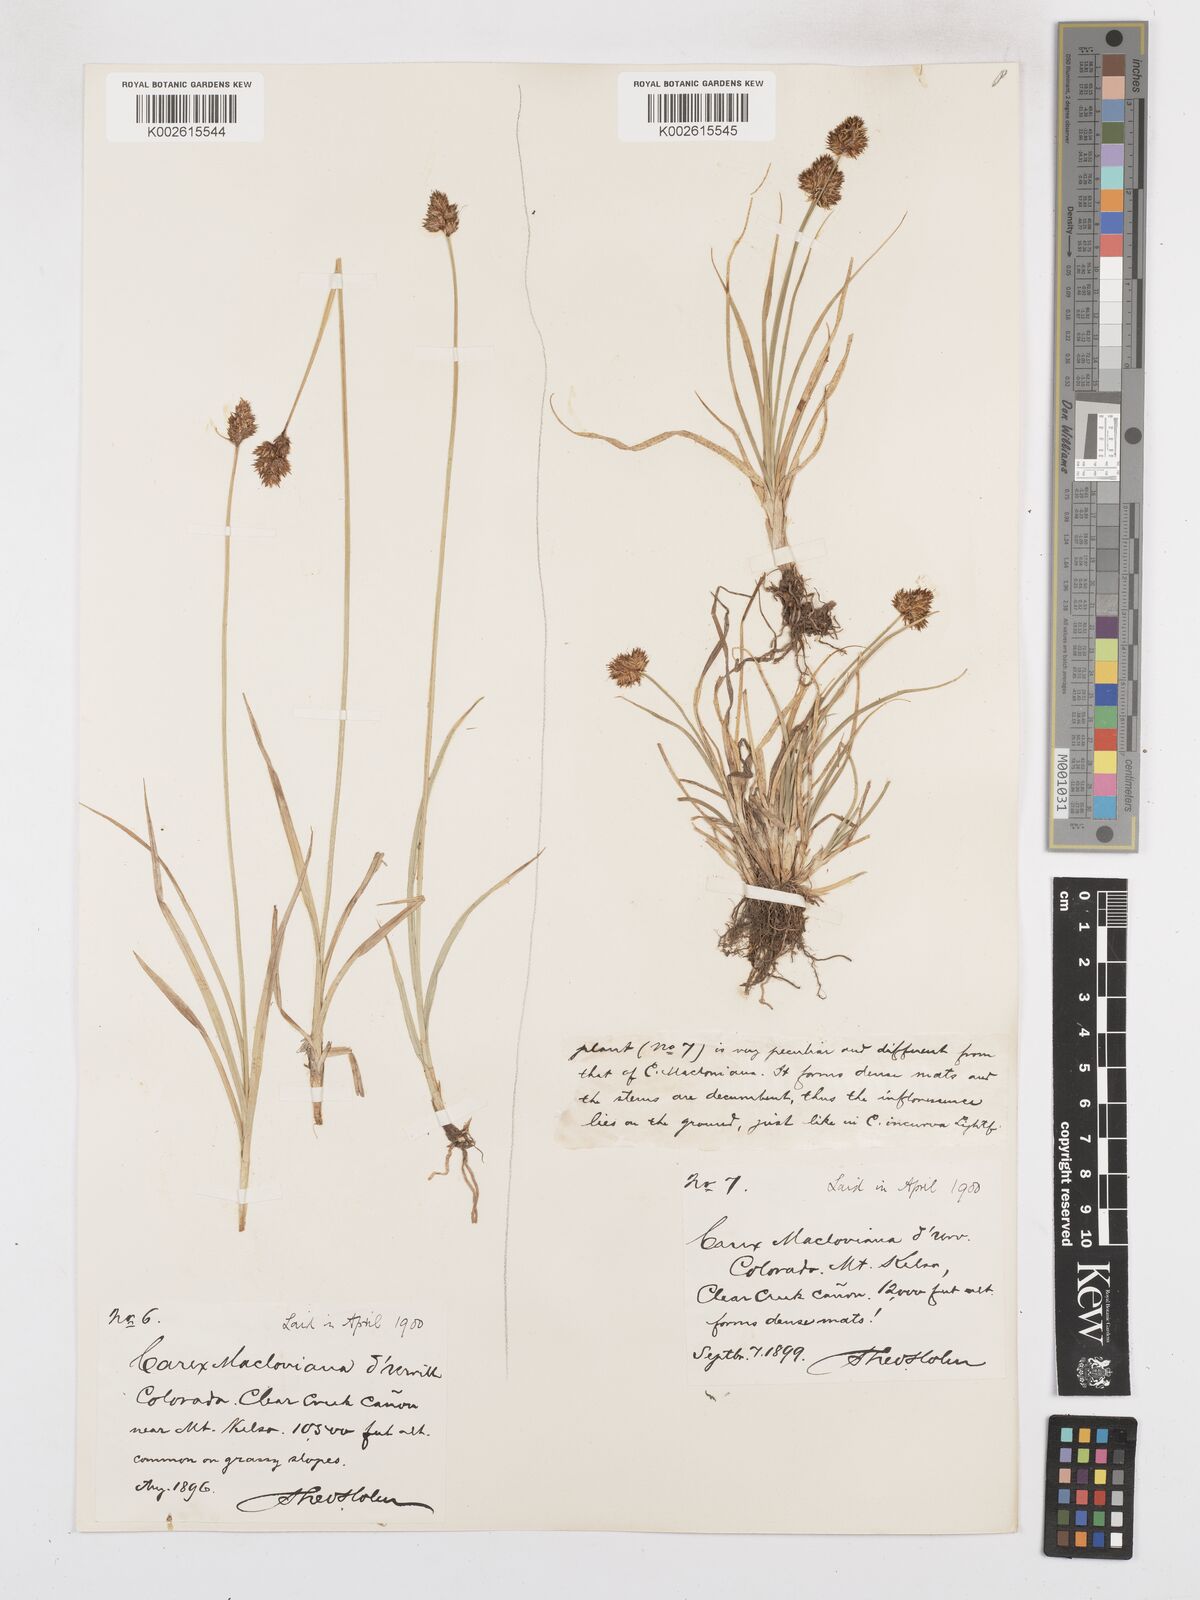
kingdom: Plantae
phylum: Tracheophyta
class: Liliopsida
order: Poales
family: Cyperaceae
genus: Carex
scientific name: Carex subfusca
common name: Brown sedge
